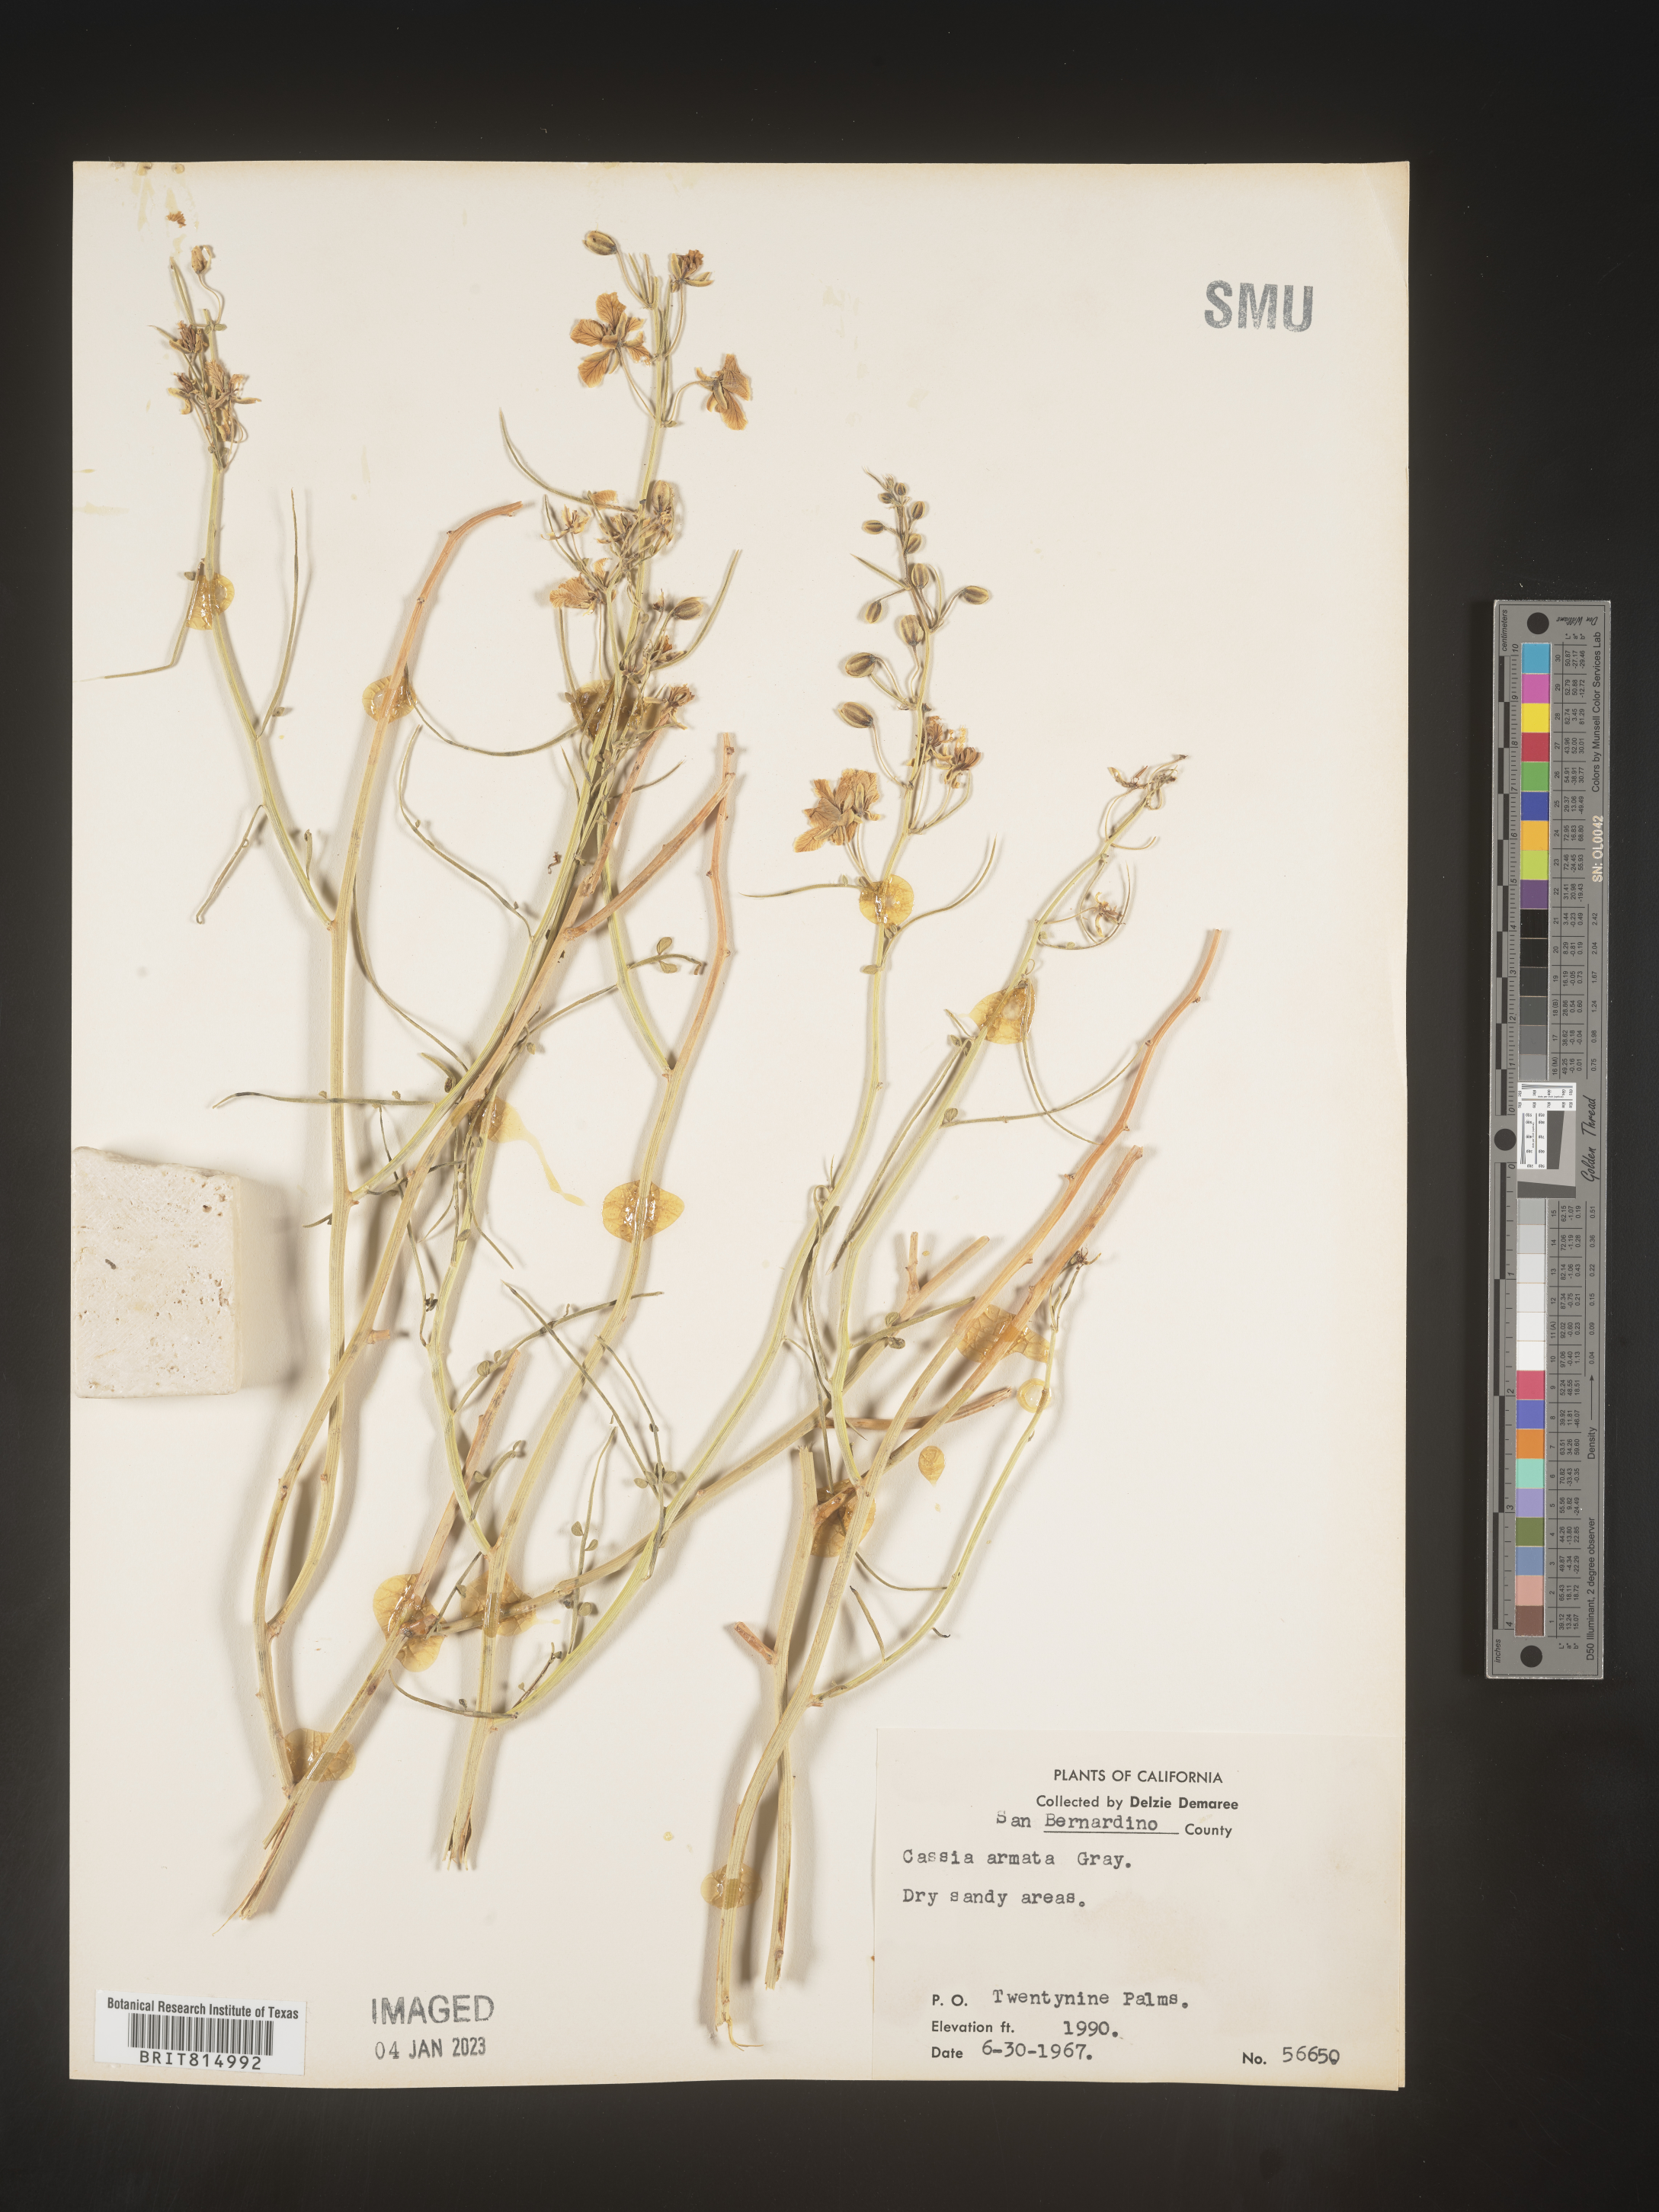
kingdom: Plantae
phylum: Tracheophyta
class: Magnoliopsida
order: Fabales
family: Fabaceae
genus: Cassia
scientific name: Cassia
